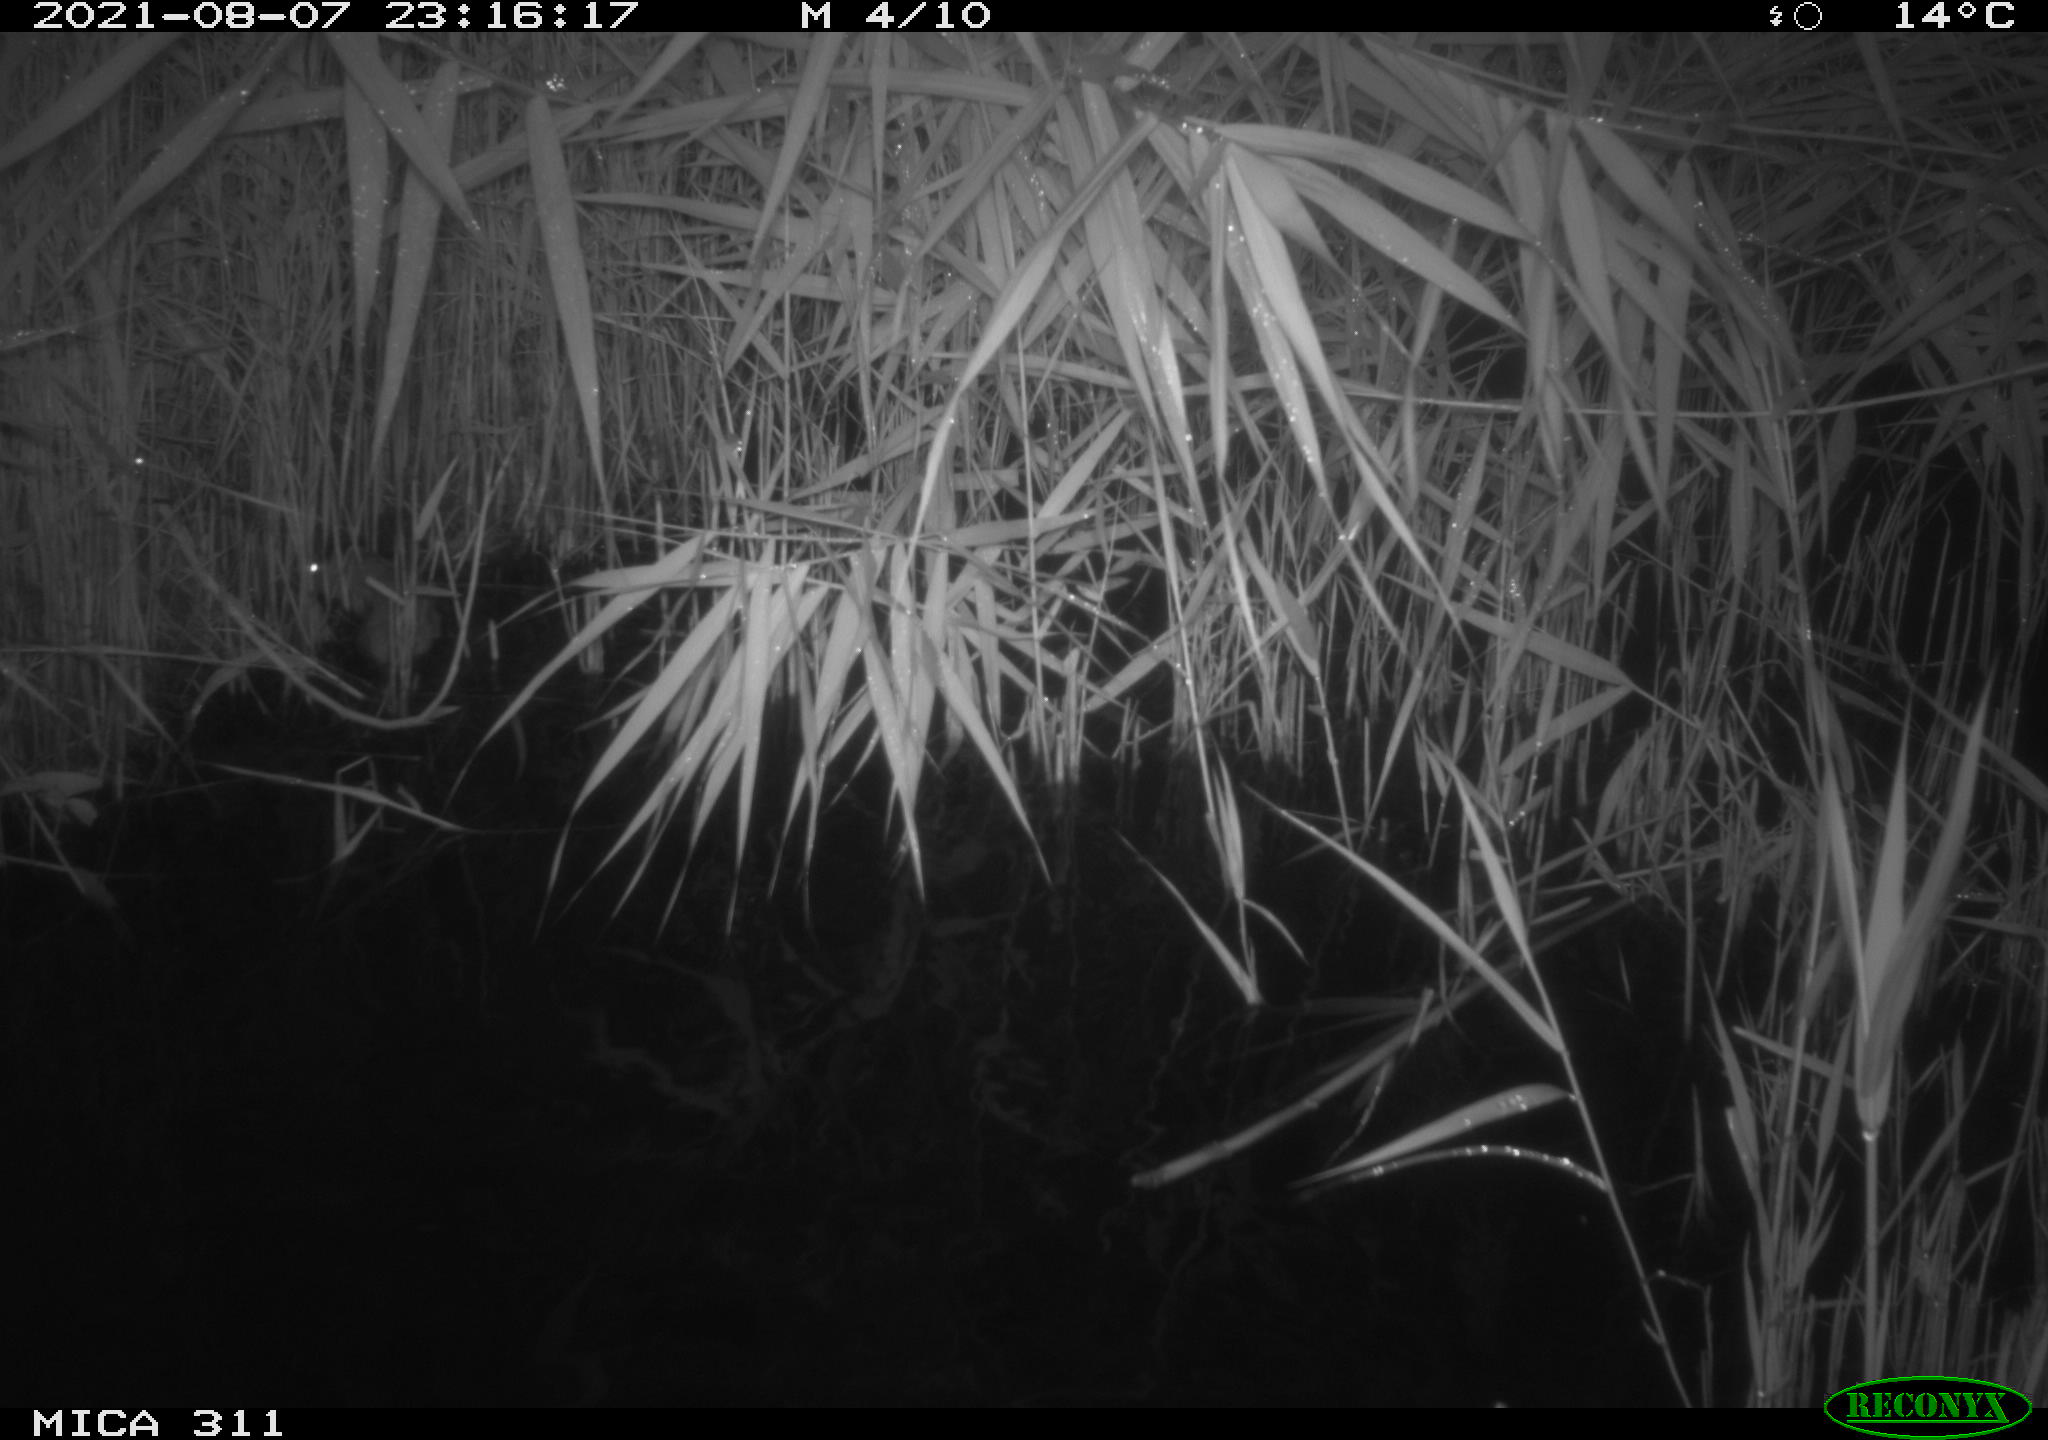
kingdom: Animalia
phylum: Chordata
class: Mammalia
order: Rodentia
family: Muridae
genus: Rattus
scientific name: Rattus norvegicus
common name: Brown rat
